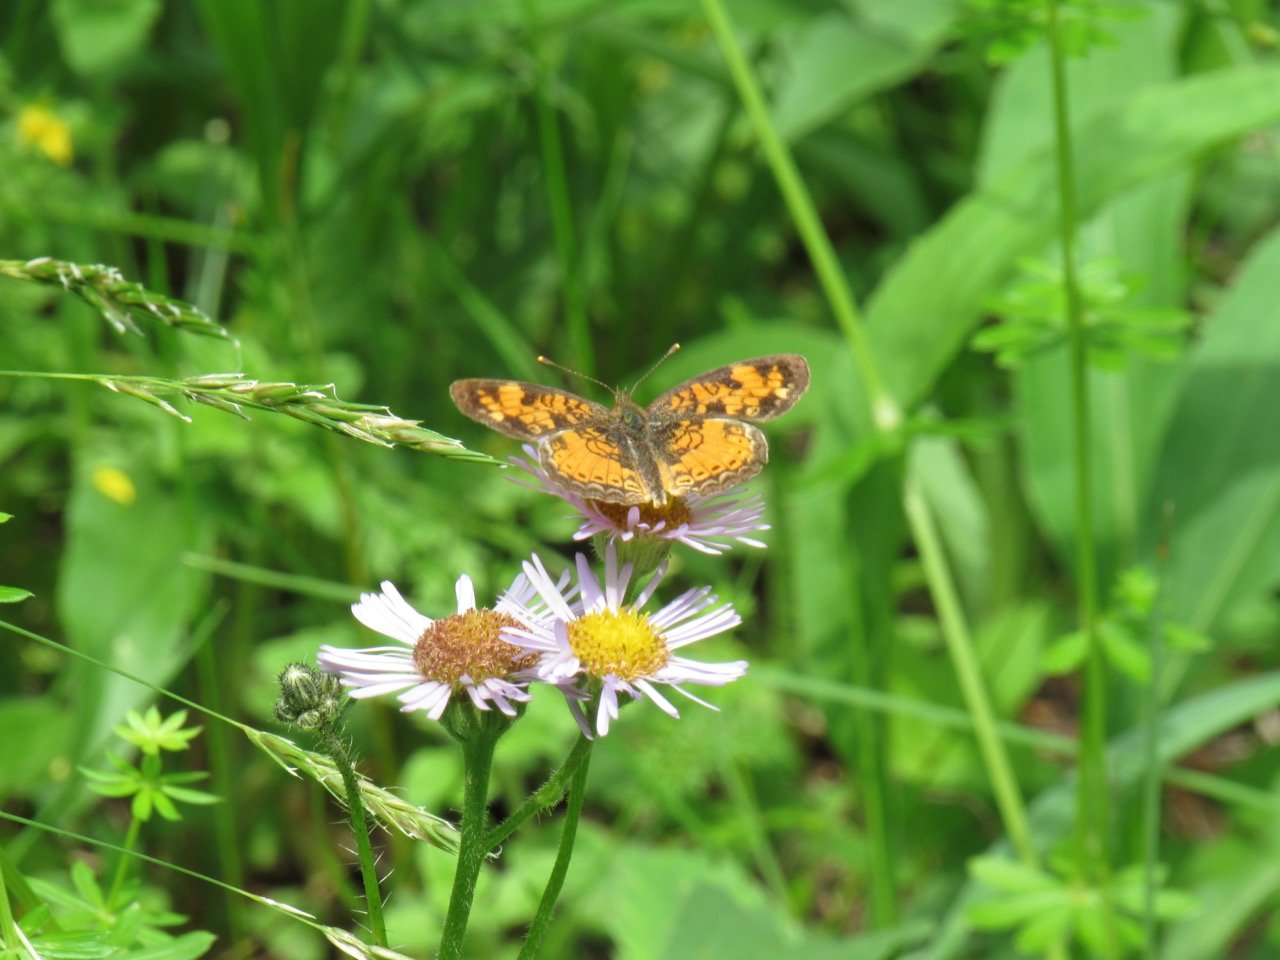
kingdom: Animalia
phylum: Arthropoda
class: Insecta
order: Lepidoptera
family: Nymphalidae
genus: Phyciodes
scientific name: Phyciodes tharos
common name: Pearl Crescent
